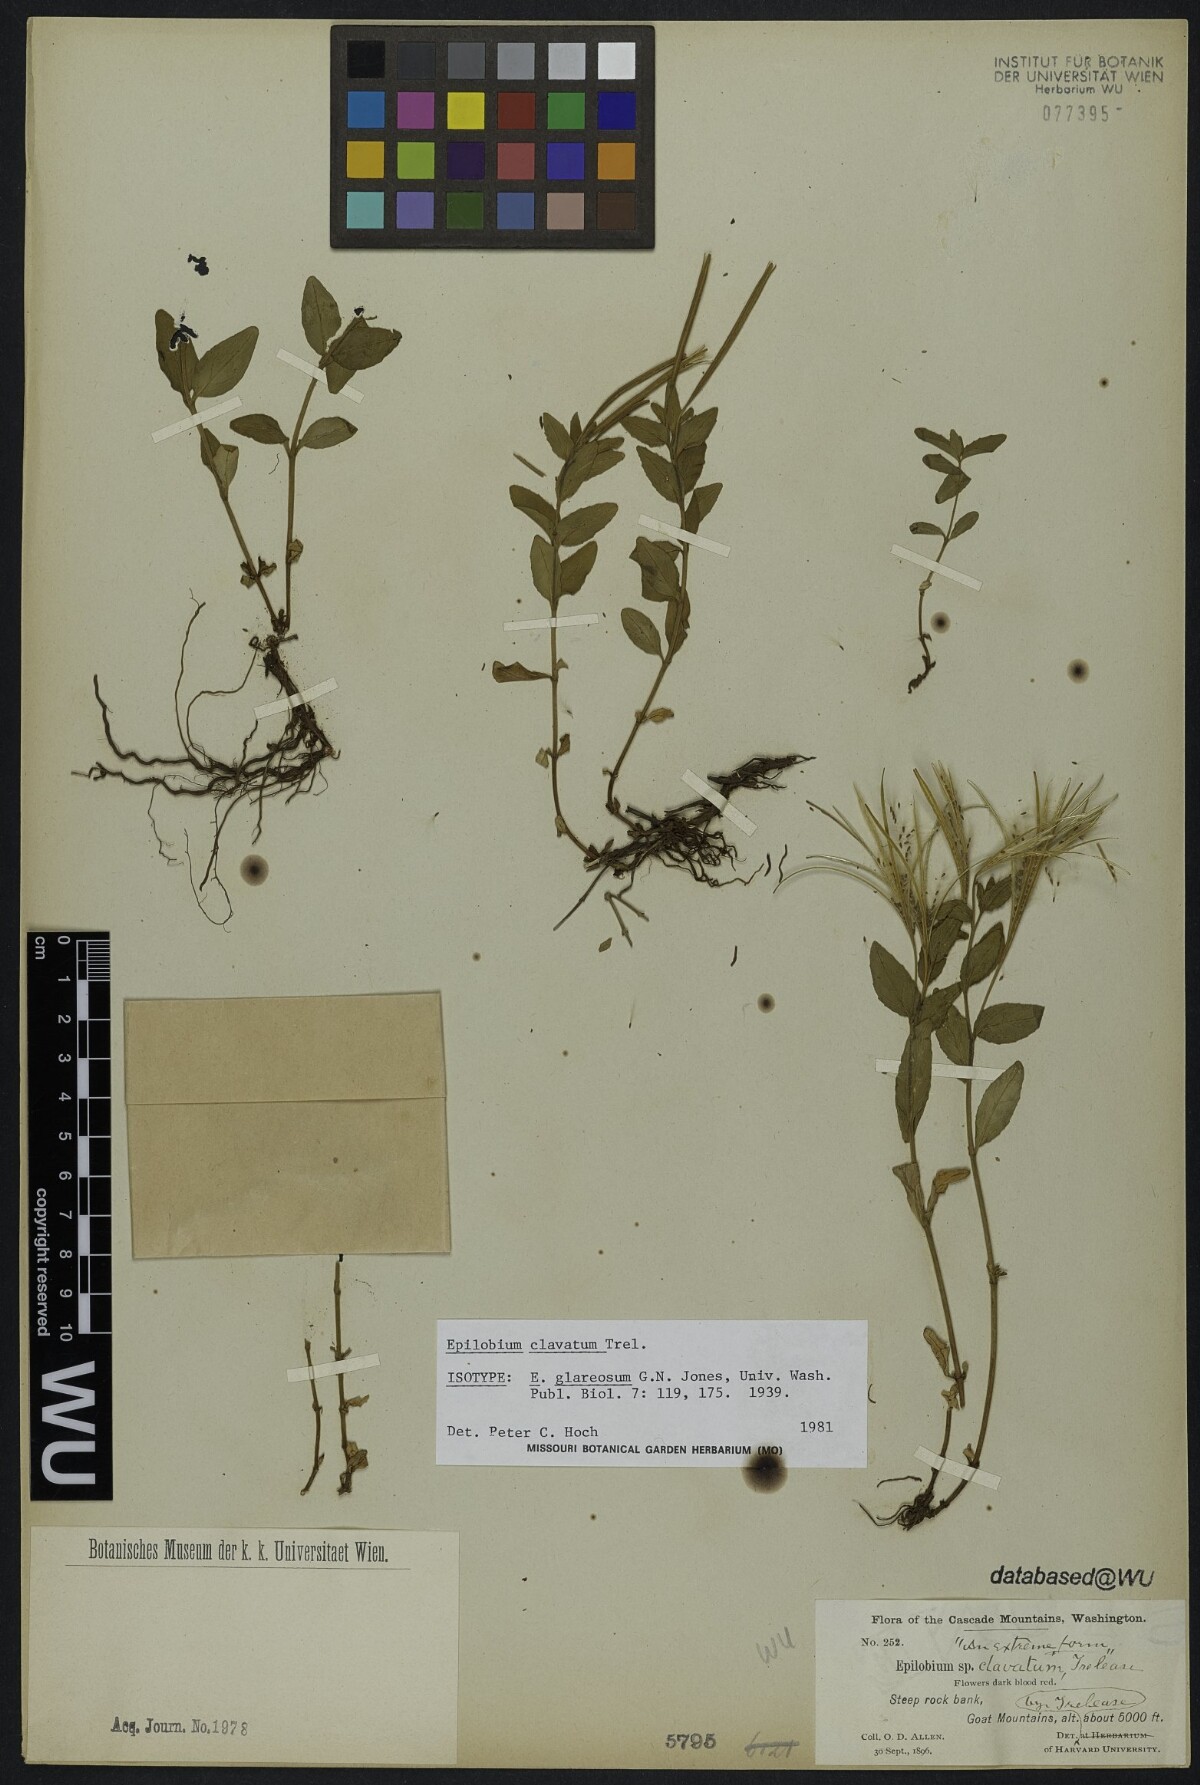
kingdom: Plantae
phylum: Tracheophyta
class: Magnoliopsida
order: Myrtales
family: Onagraceae
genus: Epilobium
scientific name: Epilobium smithii
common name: Smith's willowherb
